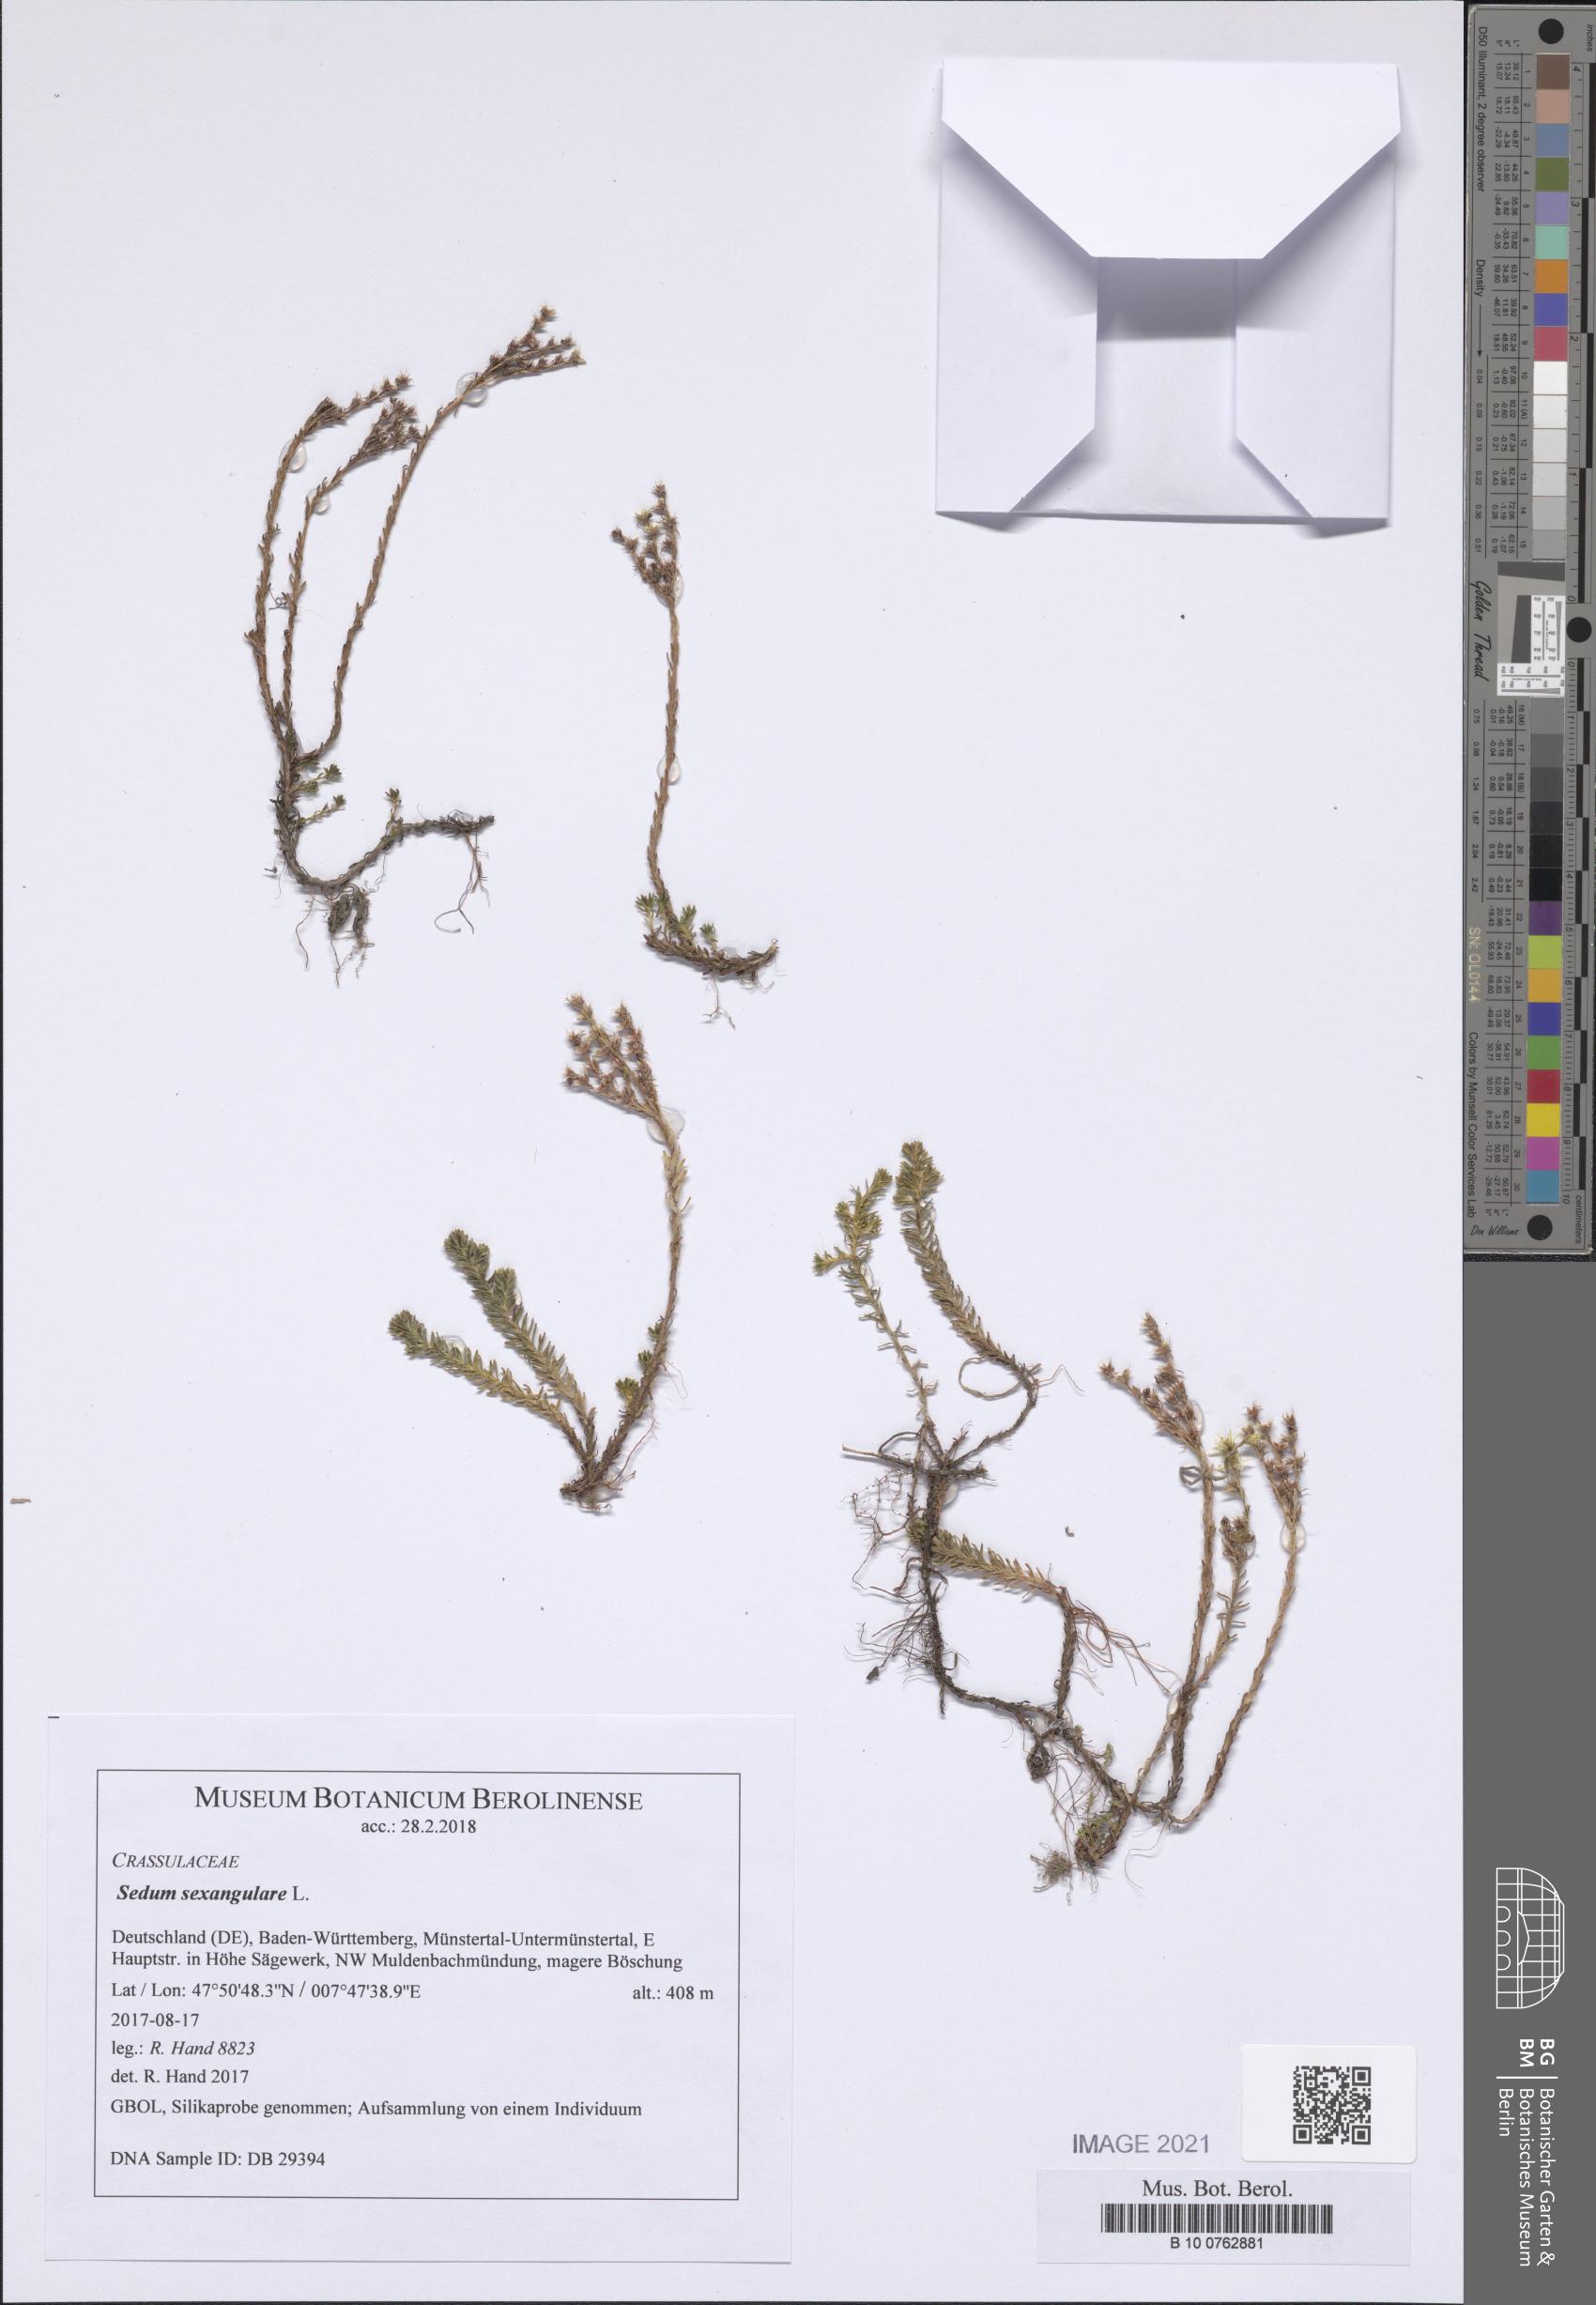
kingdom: Plantae
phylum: Tracheophyta
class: Magnoliopsida
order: Saxifragales
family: Crassulaceae
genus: Sedum
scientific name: Sedum sexangulare
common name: Tasteless stonecrop
